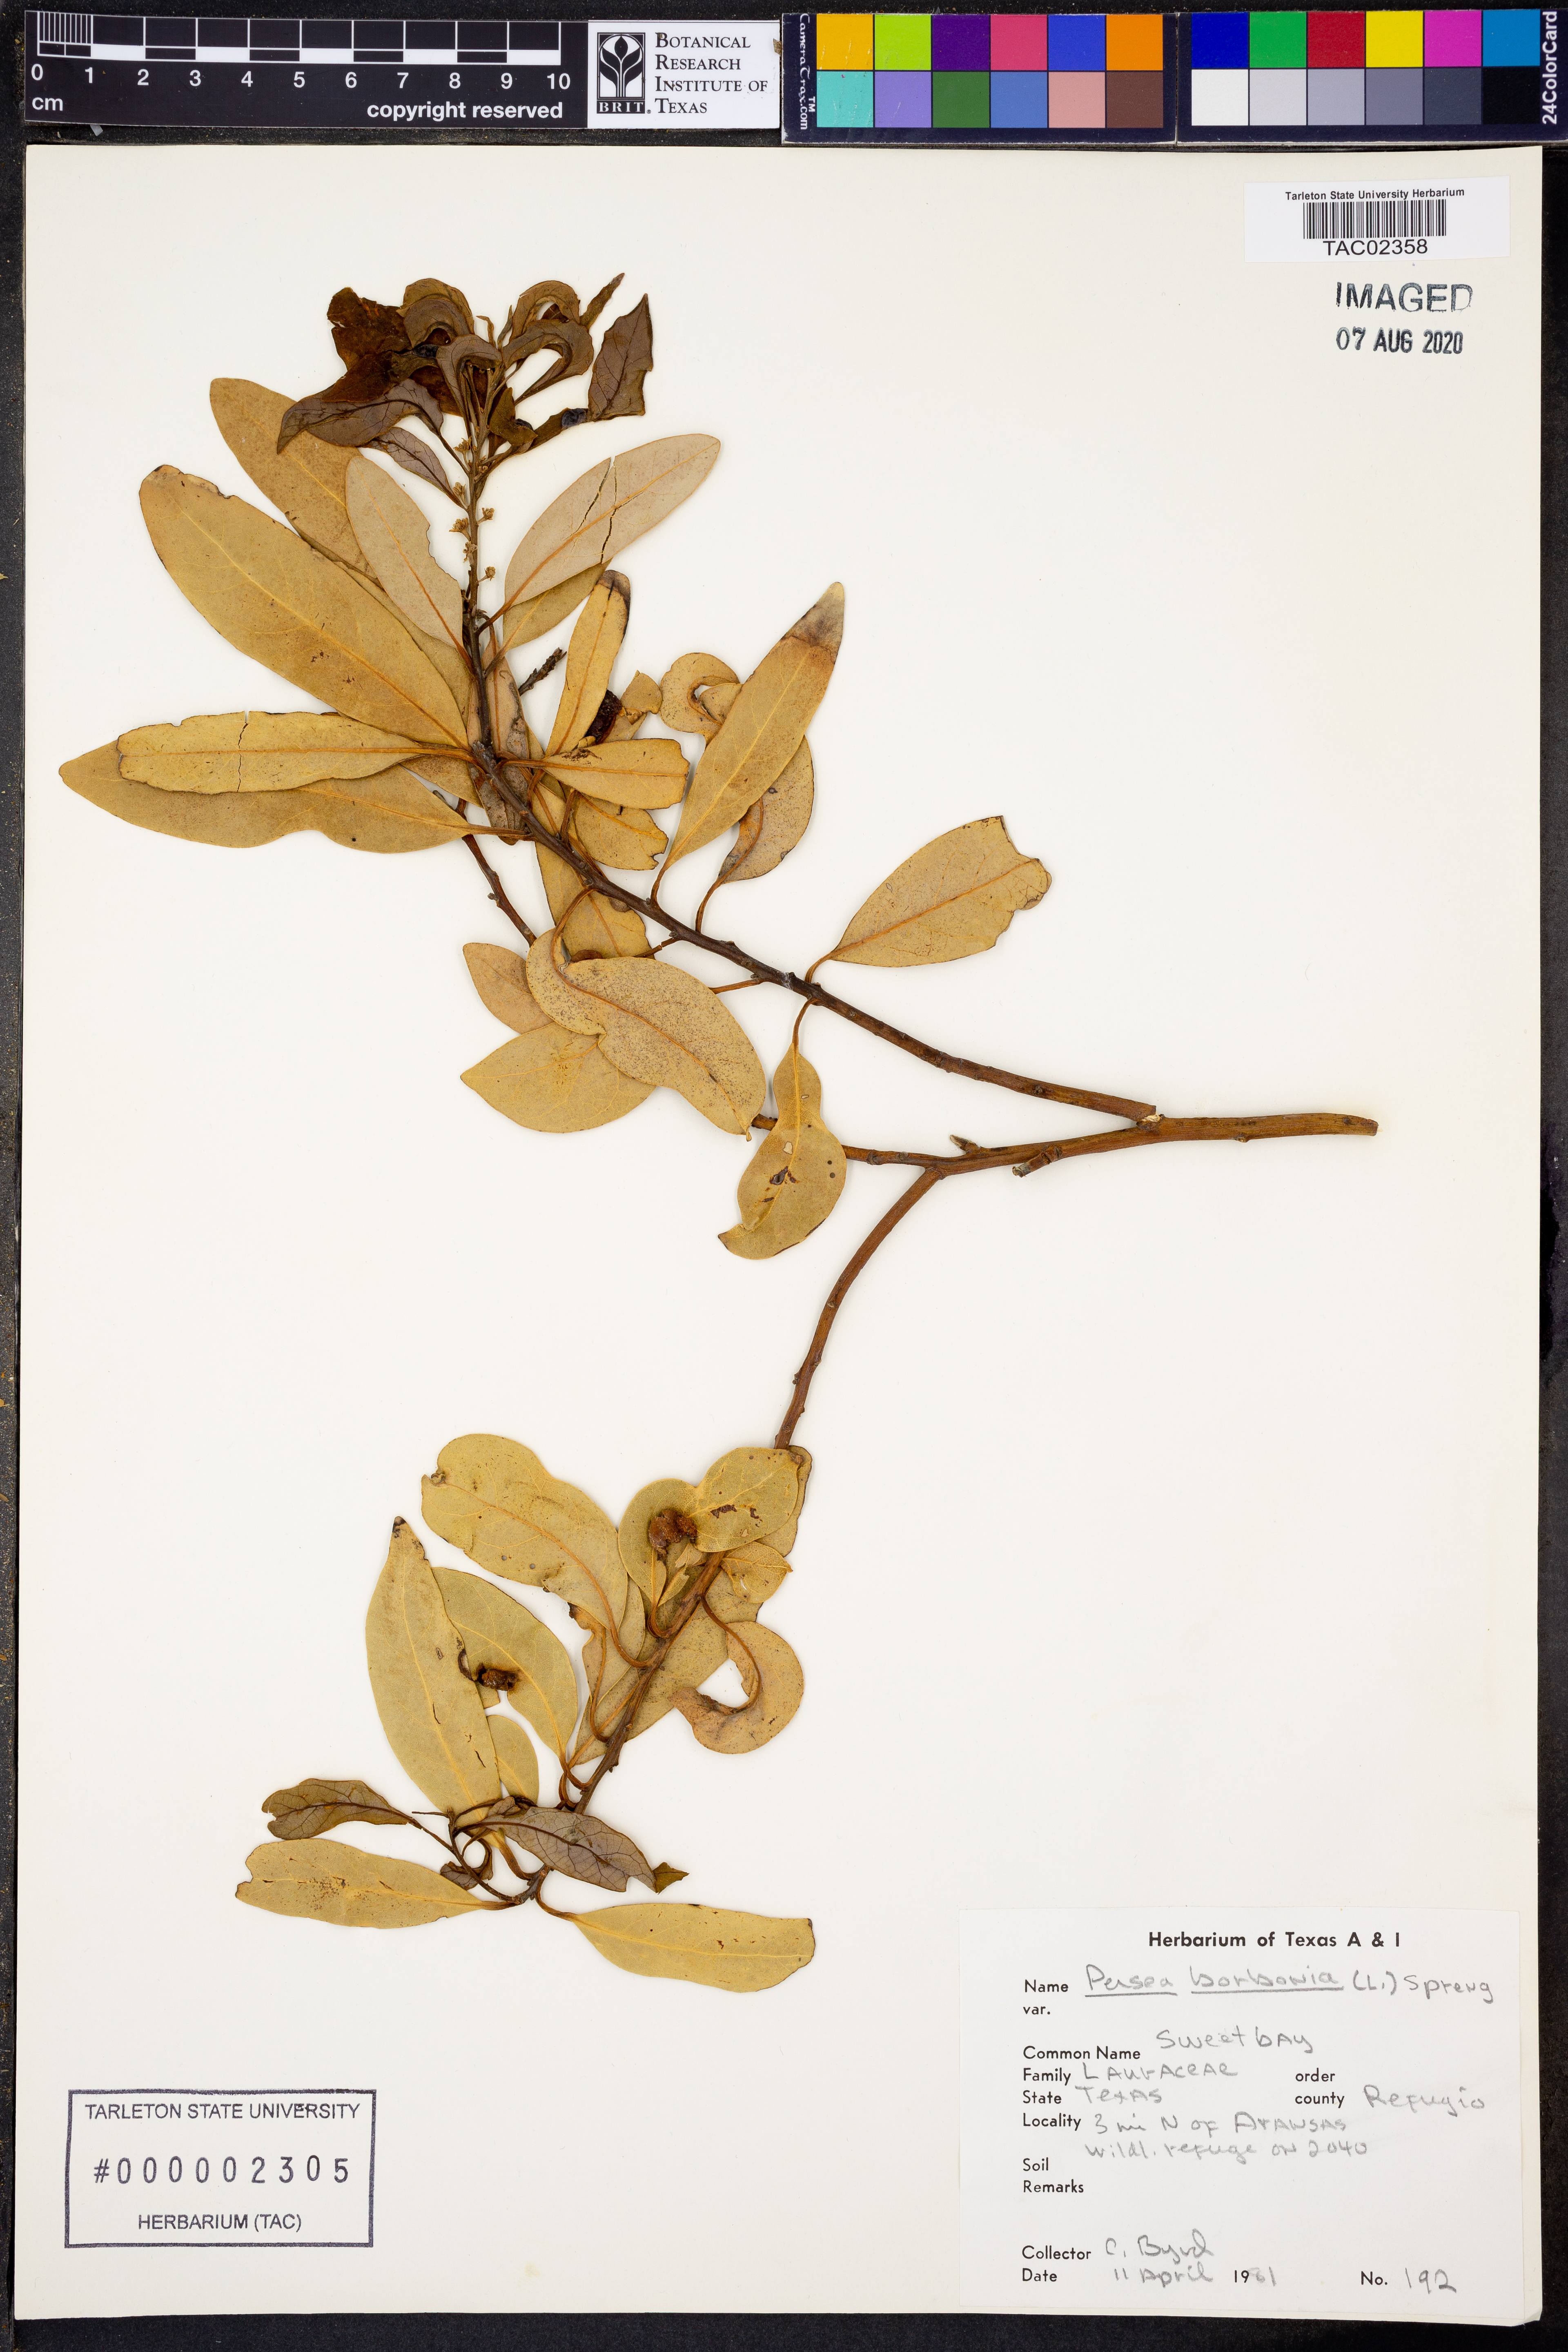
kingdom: Plantae
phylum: Tracheophyta
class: Magnoliopsida
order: Laurales
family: Lauraceae
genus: Persea
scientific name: Persea borbonia
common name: Redbay
